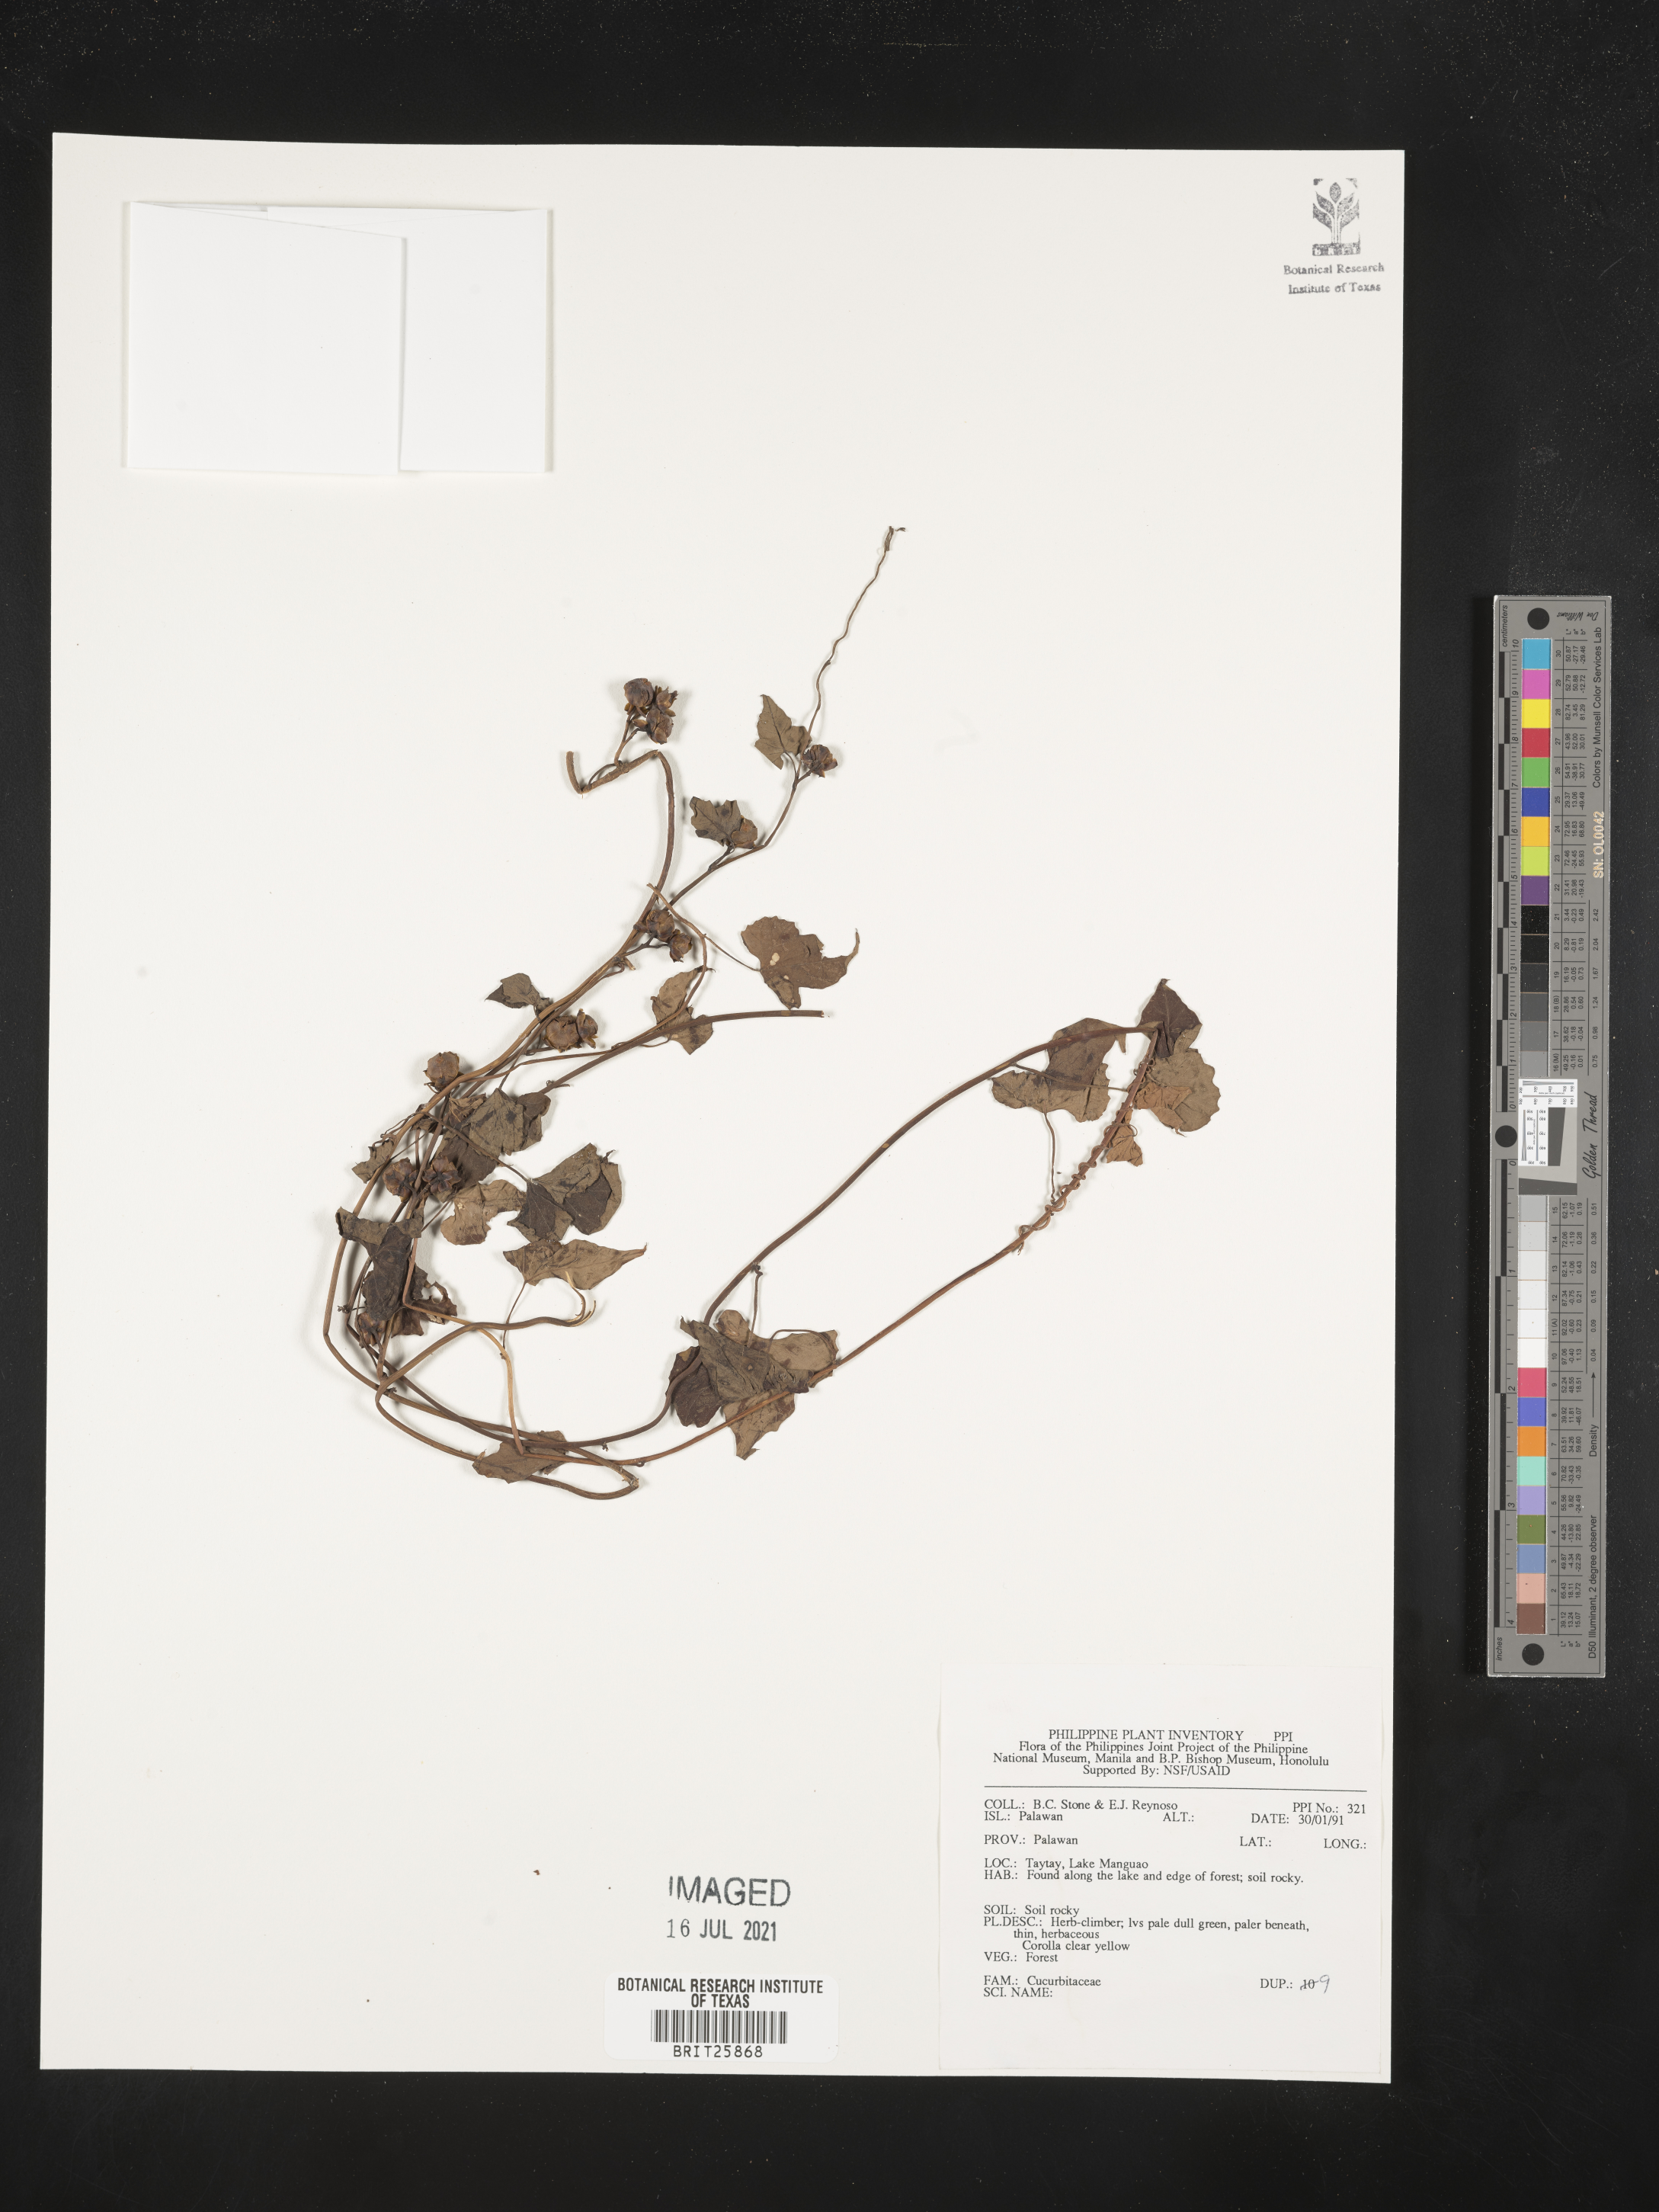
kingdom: Plantae
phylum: Tracheophyta
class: Magnoliopsida
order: Cucurbitales
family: Cucurbitaceae
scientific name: Cucurbitaceae
